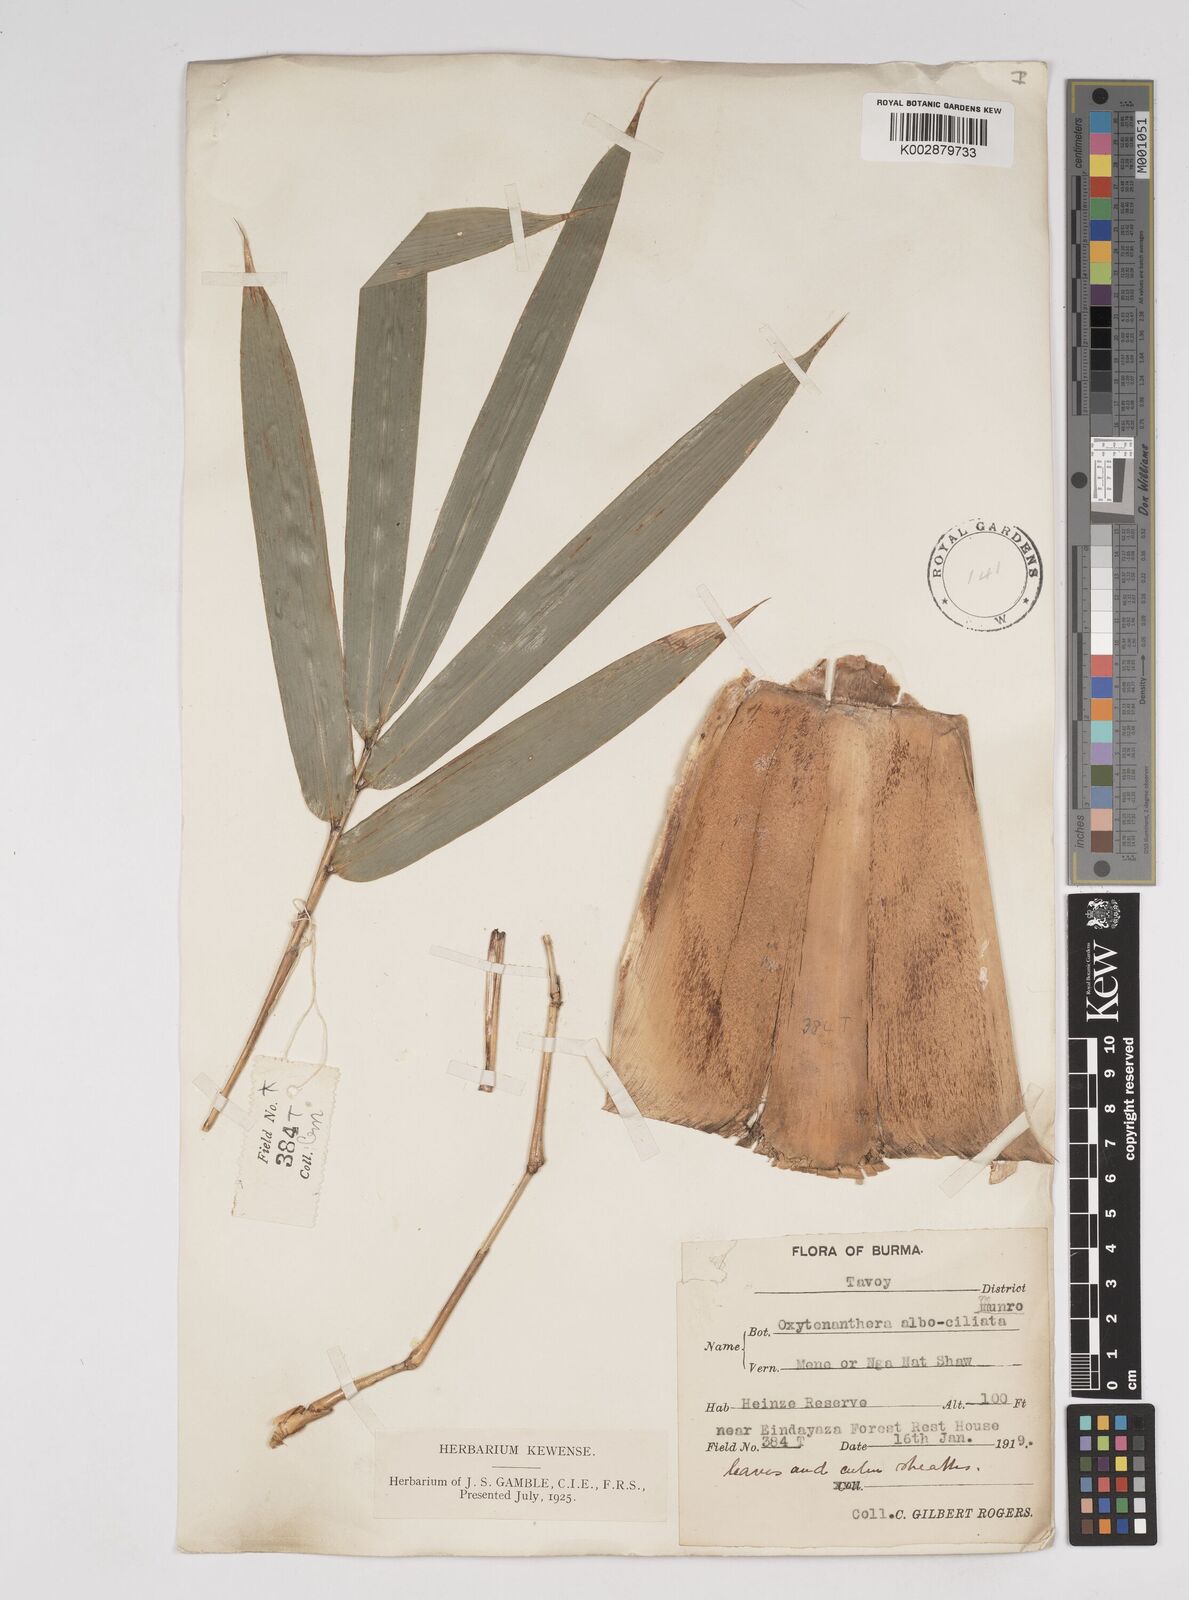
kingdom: Plantae
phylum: Tracheophyta
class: Liliopsida
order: Poales
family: Poaceae
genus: Gigantochloa
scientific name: Gigantochloa albociliata
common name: White-fringe gigantochloa
